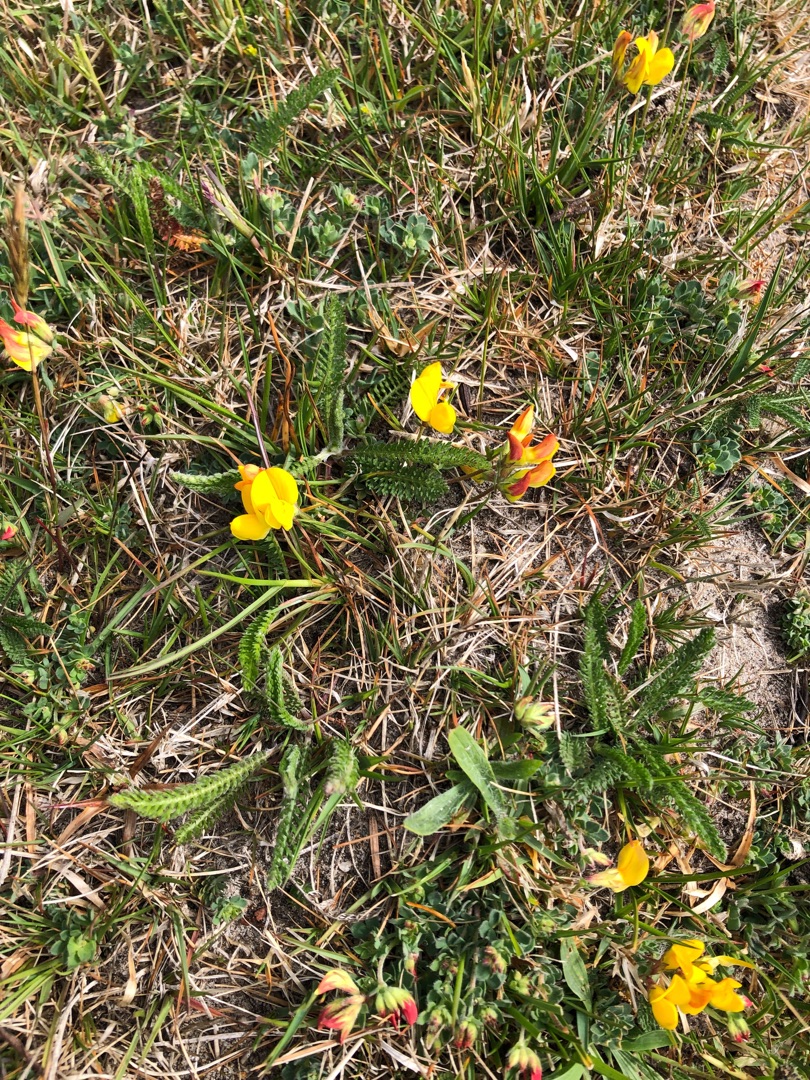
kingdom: Plantae
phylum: Tracheophyta
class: Magnoliopsida
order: Fabales
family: Fabaceae
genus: Lotus
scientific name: Lotus corniculatus
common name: Almindelig kællingetand
